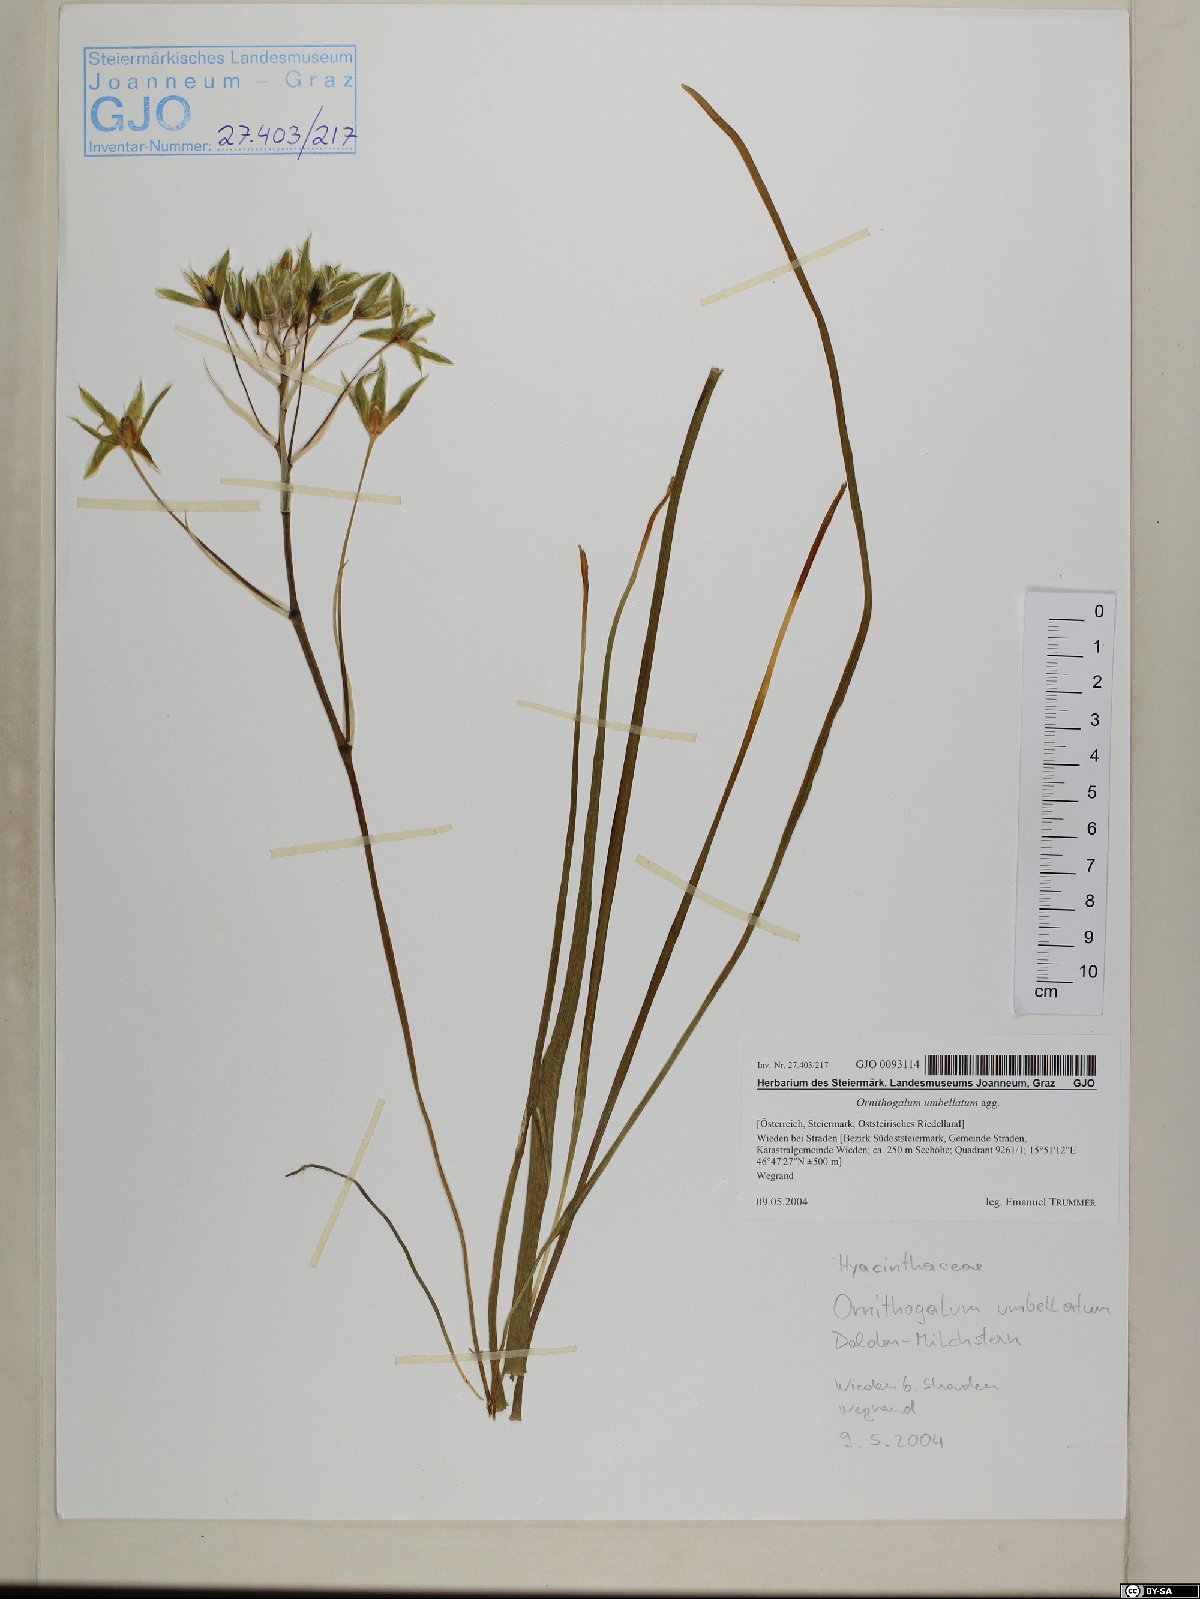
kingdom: Plantae
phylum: Tracheophyta
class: Liliopsida
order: Asparagales
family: Asparagaceae
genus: Ornithogalum
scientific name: Ornithogalum umbellatum
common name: Garden star-of-bethlehem
